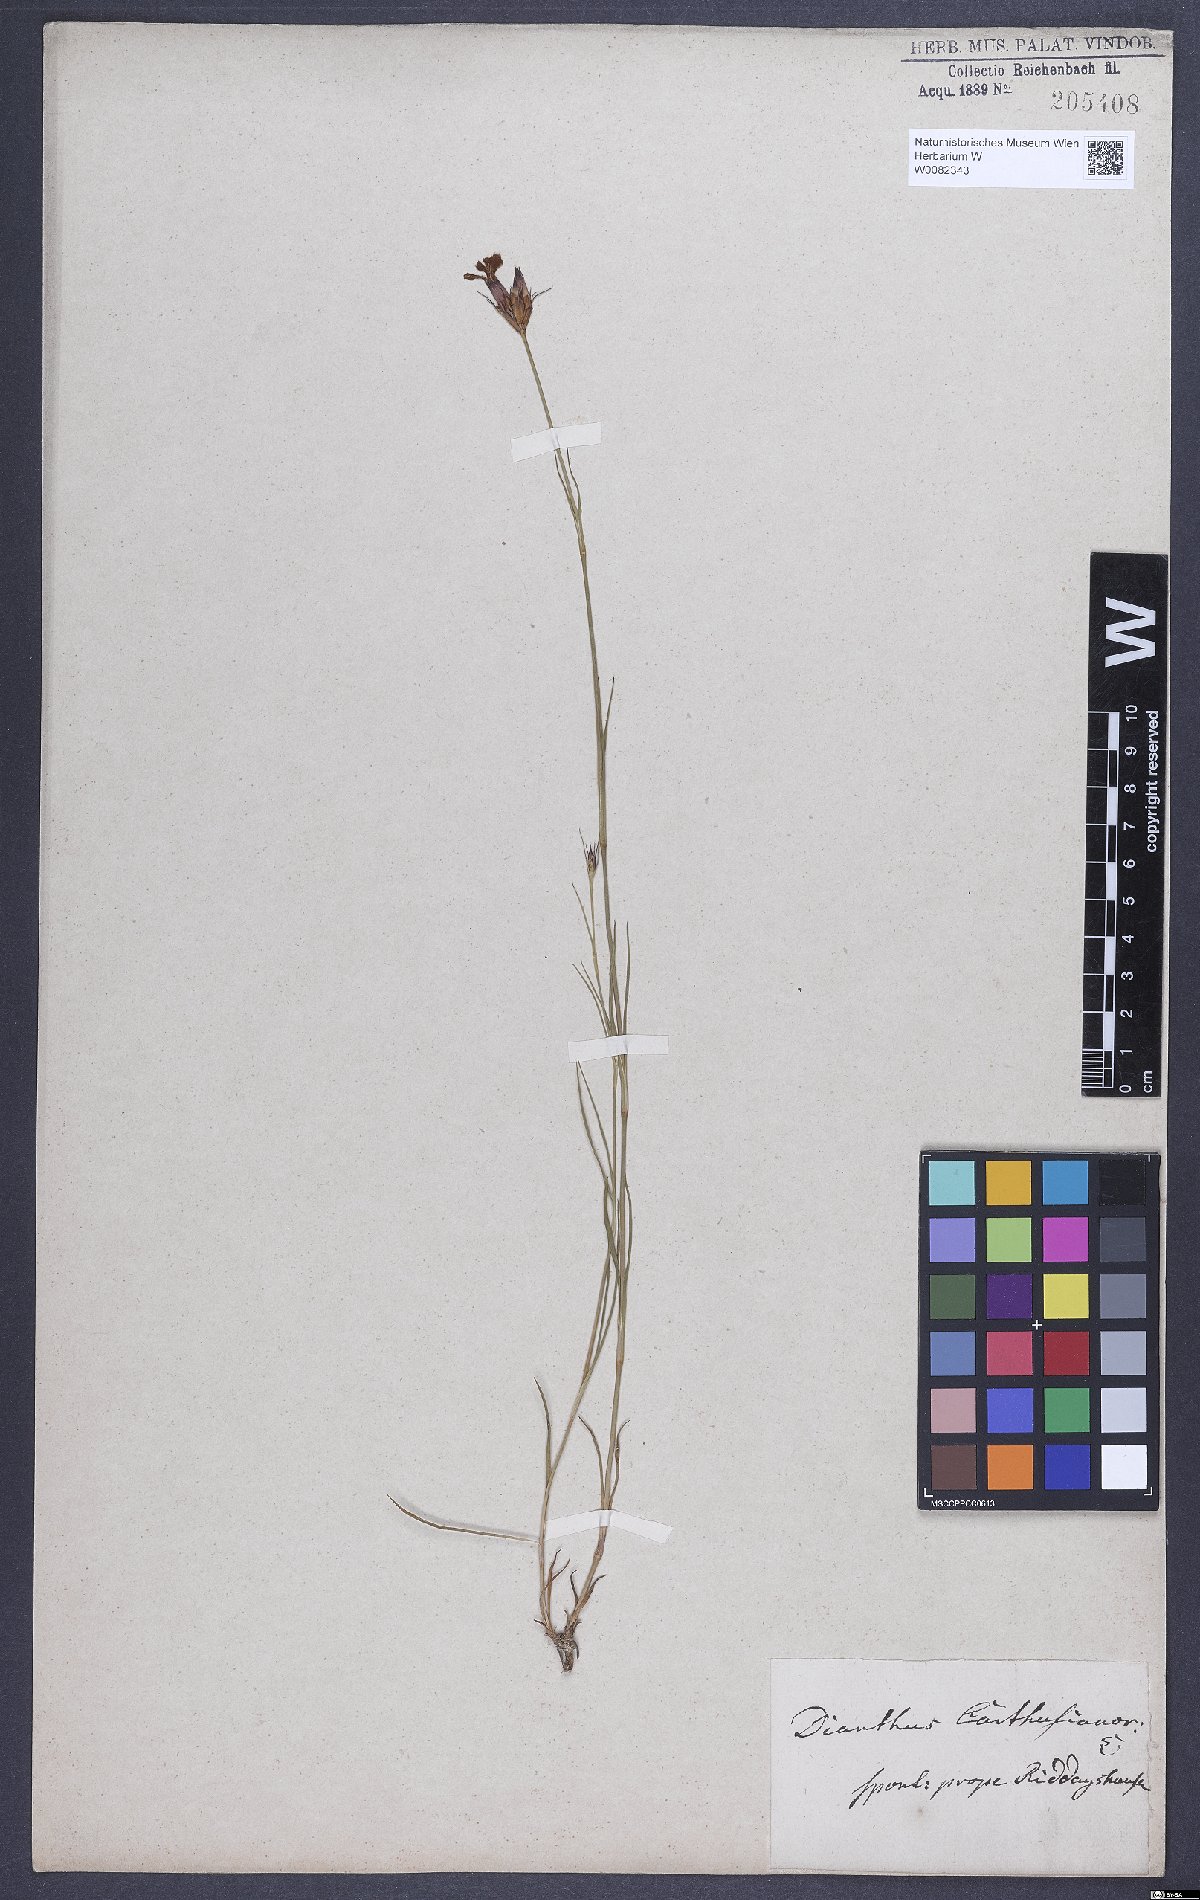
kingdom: Plantae
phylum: Tracheophyta
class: Magnoliopsida
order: Caryophyllales
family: Caryophyllaceae
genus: Dianthus
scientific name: Dianthus carthusianorum
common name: Carthusian pink
